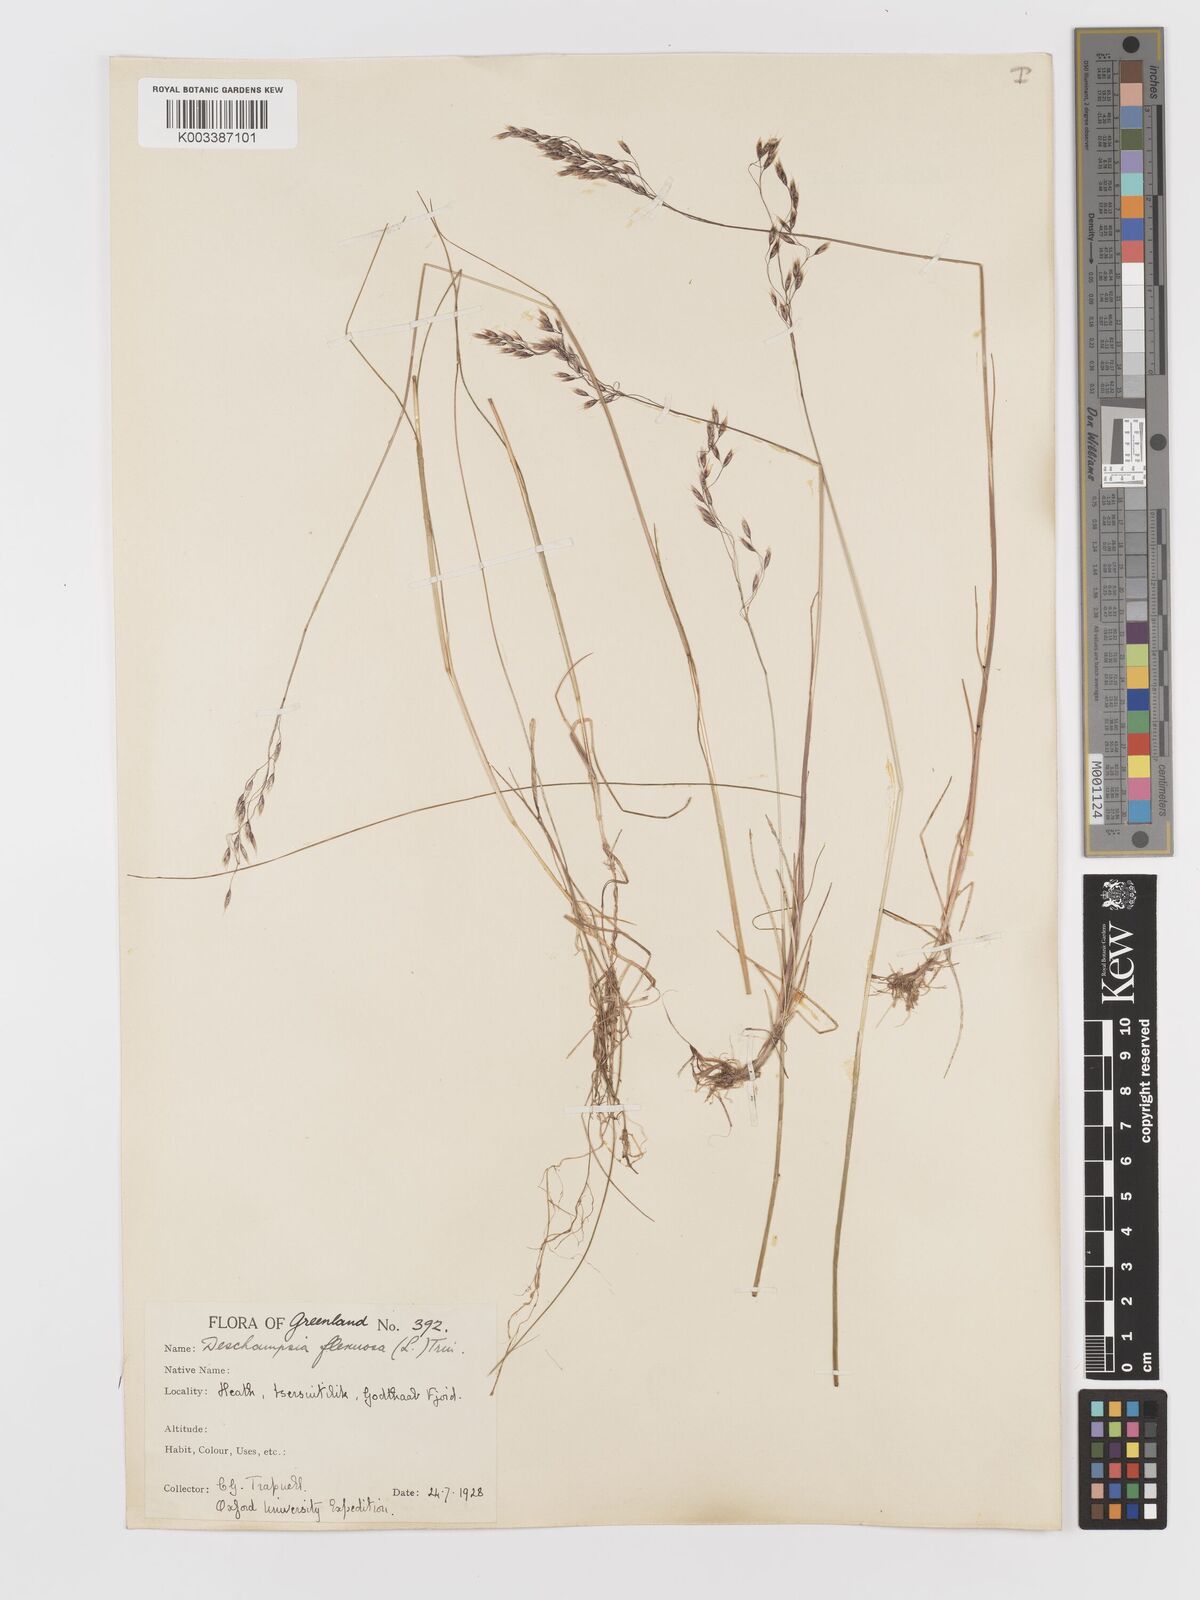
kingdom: Plantae
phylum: Tracheophyta
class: Liliopsida
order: Poales
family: Poaceae
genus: Avenella
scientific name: Avenella flexuosa
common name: Wavy hairgrass
